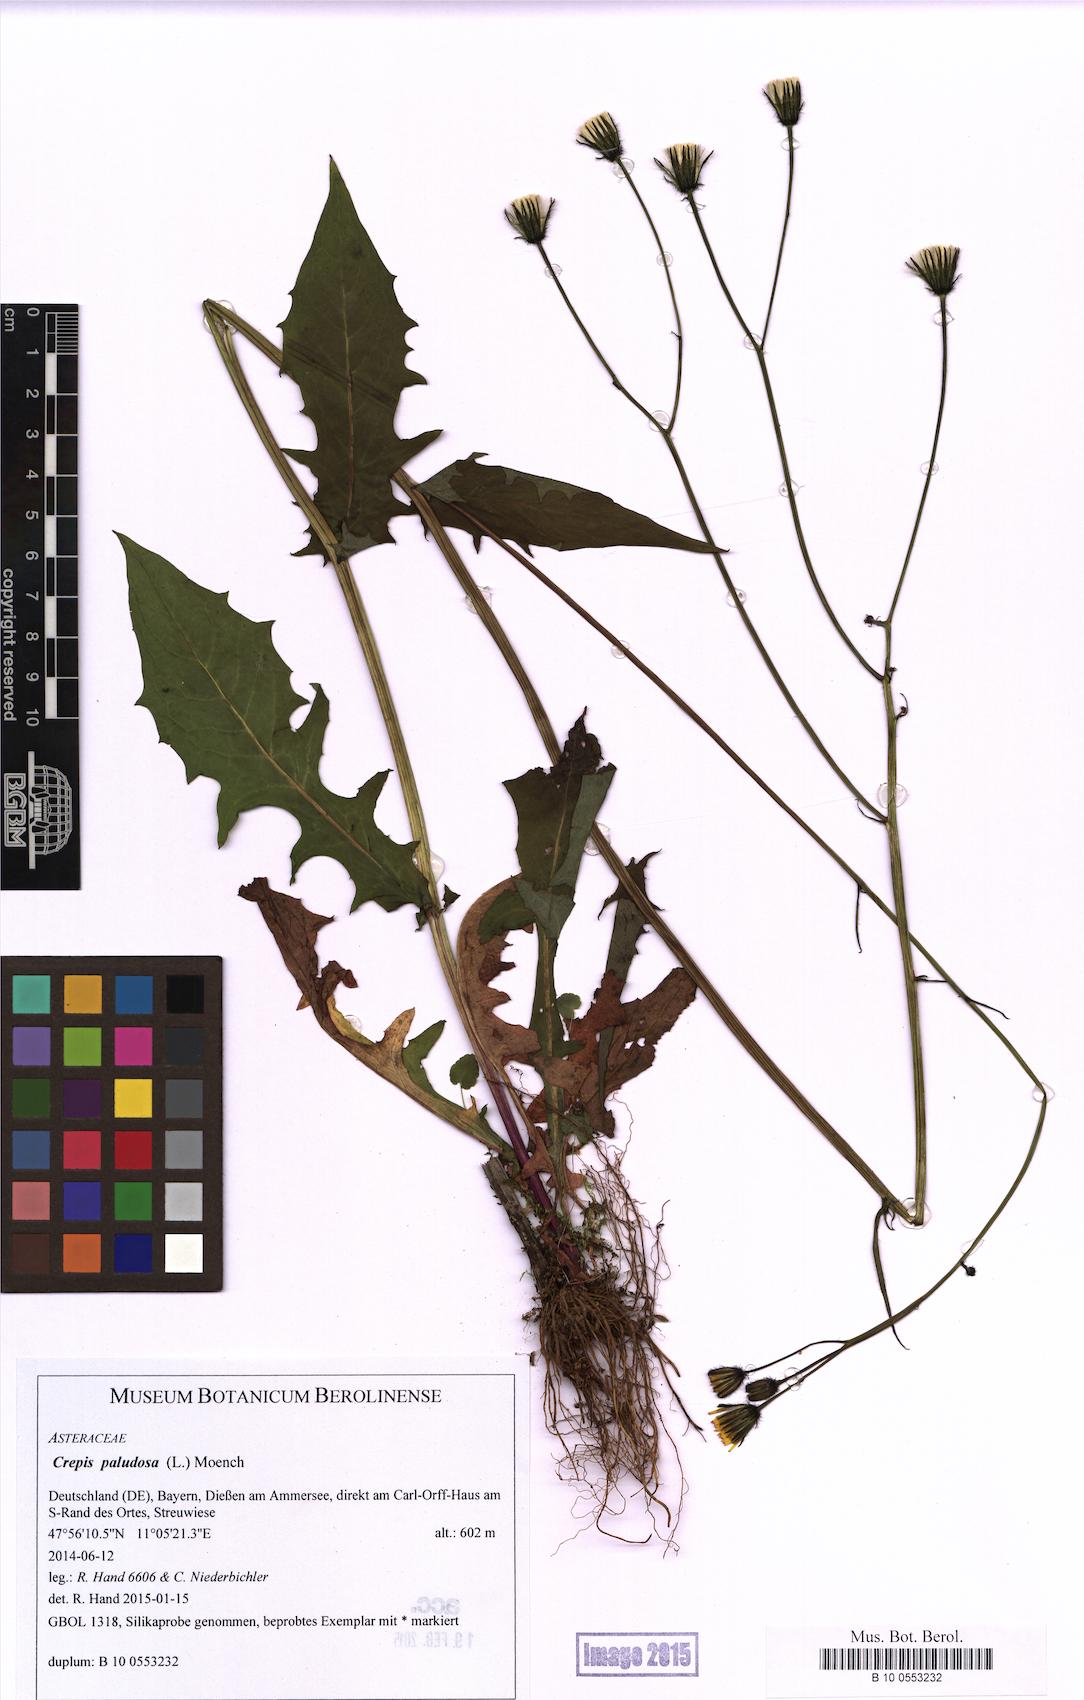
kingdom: Plantae
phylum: Tracheophyta
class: Magnoliopsida
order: Asterales
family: Asteraceae
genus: Crepis
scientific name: Crepis paludosa
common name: Marsh hawk's-beard
